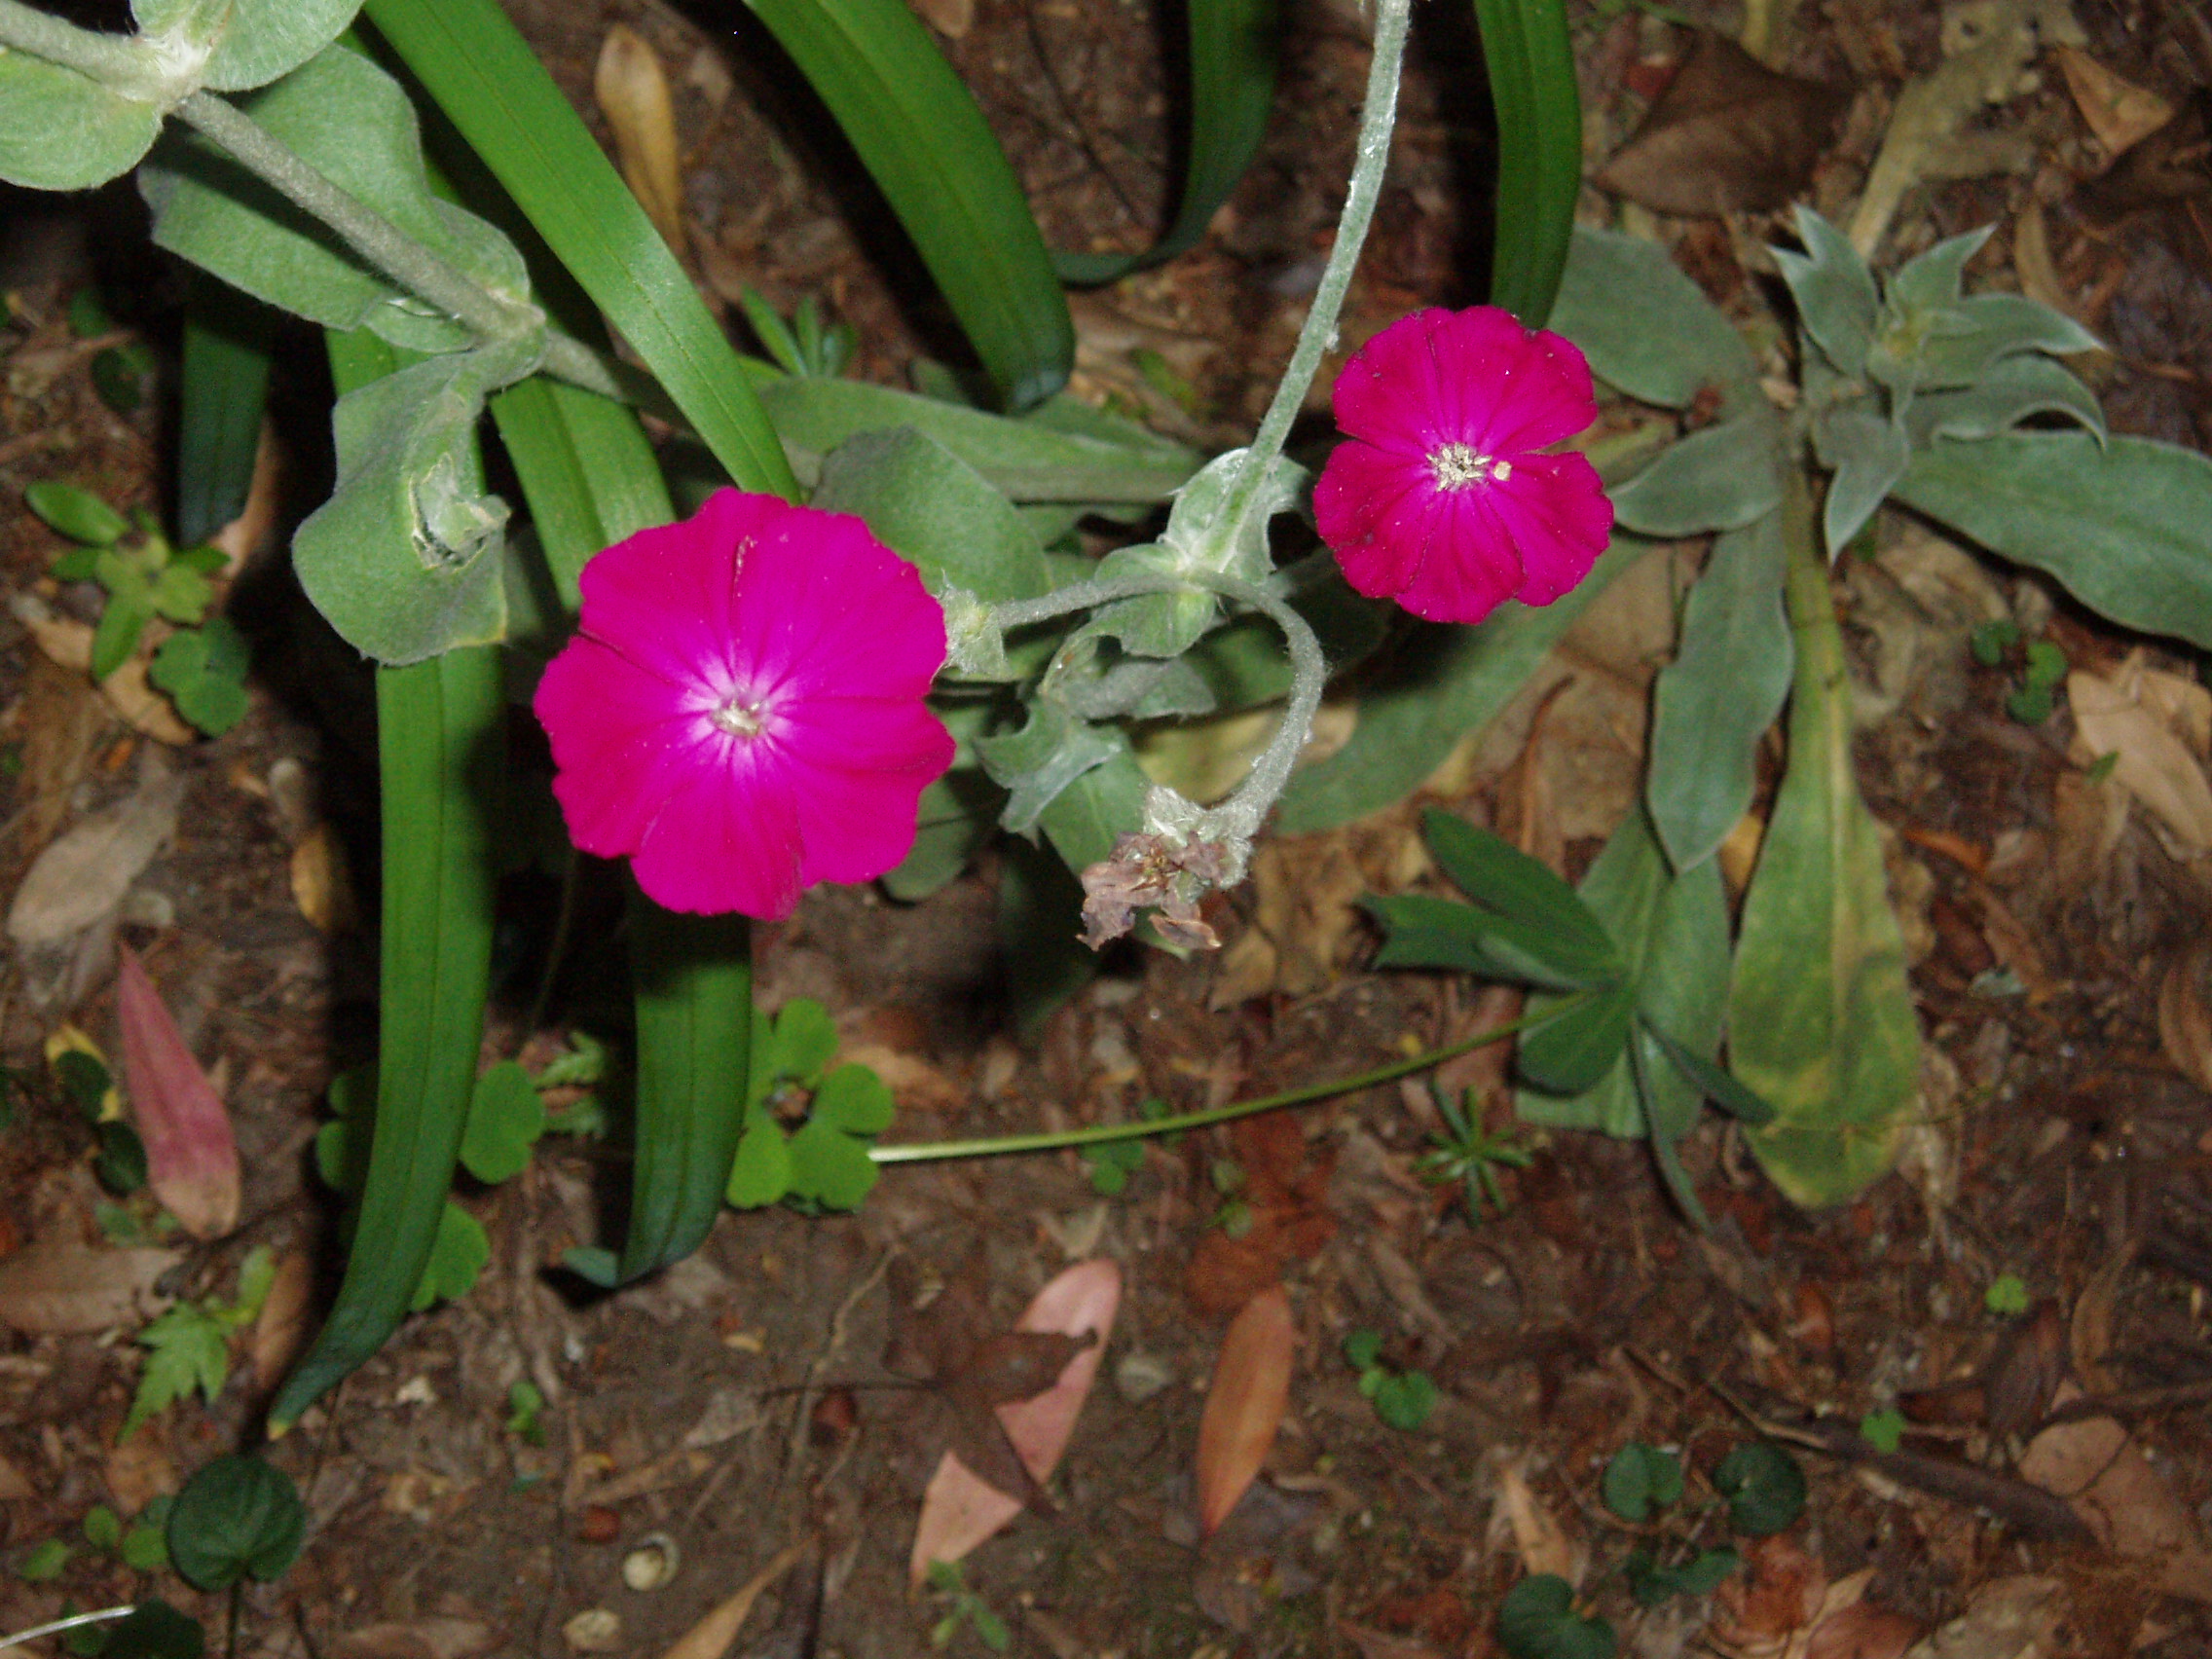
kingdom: Plantae
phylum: Tracheophyta
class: Magnoliopsida
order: Caryophyllales
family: Caryophyllaceae
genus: Silene
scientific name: Silene coronaria
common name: Rose campion
